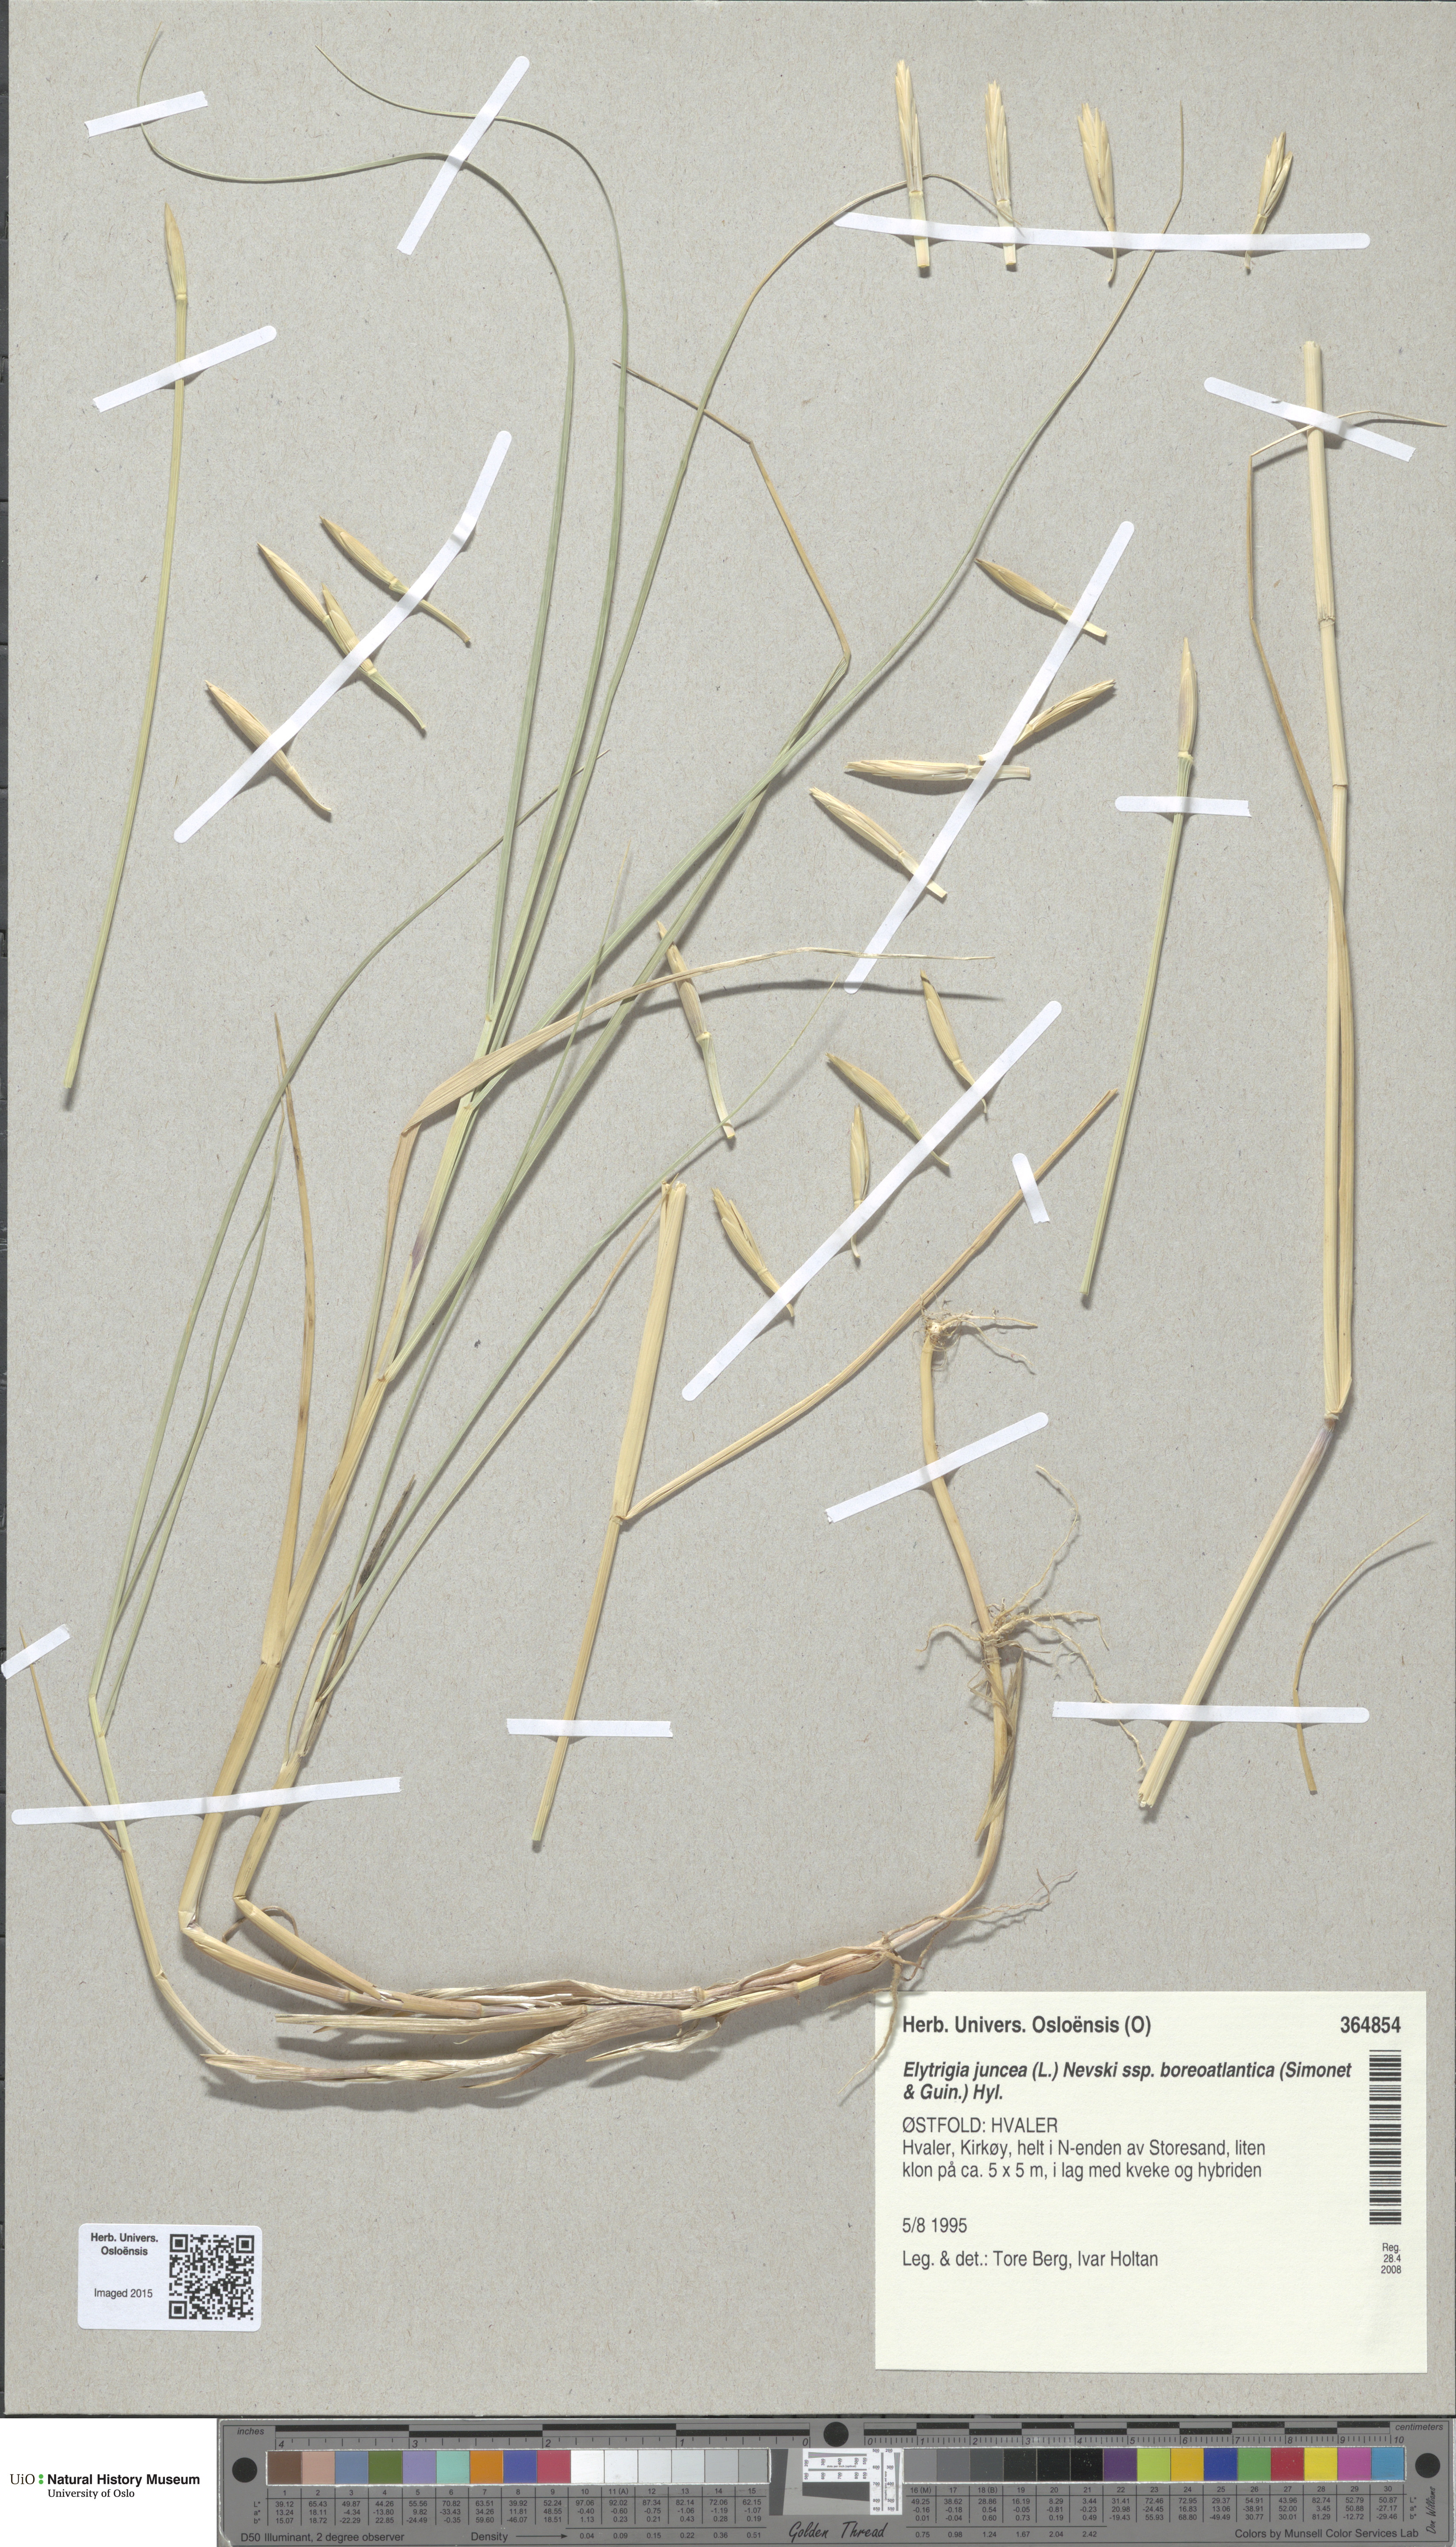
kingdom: Plantae
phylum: Tracheophyta
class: Liliopsida
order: Poales
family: Poaceae
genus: Thinopyrum
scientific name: Thinopyrum junceiforme
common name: Sea couch
